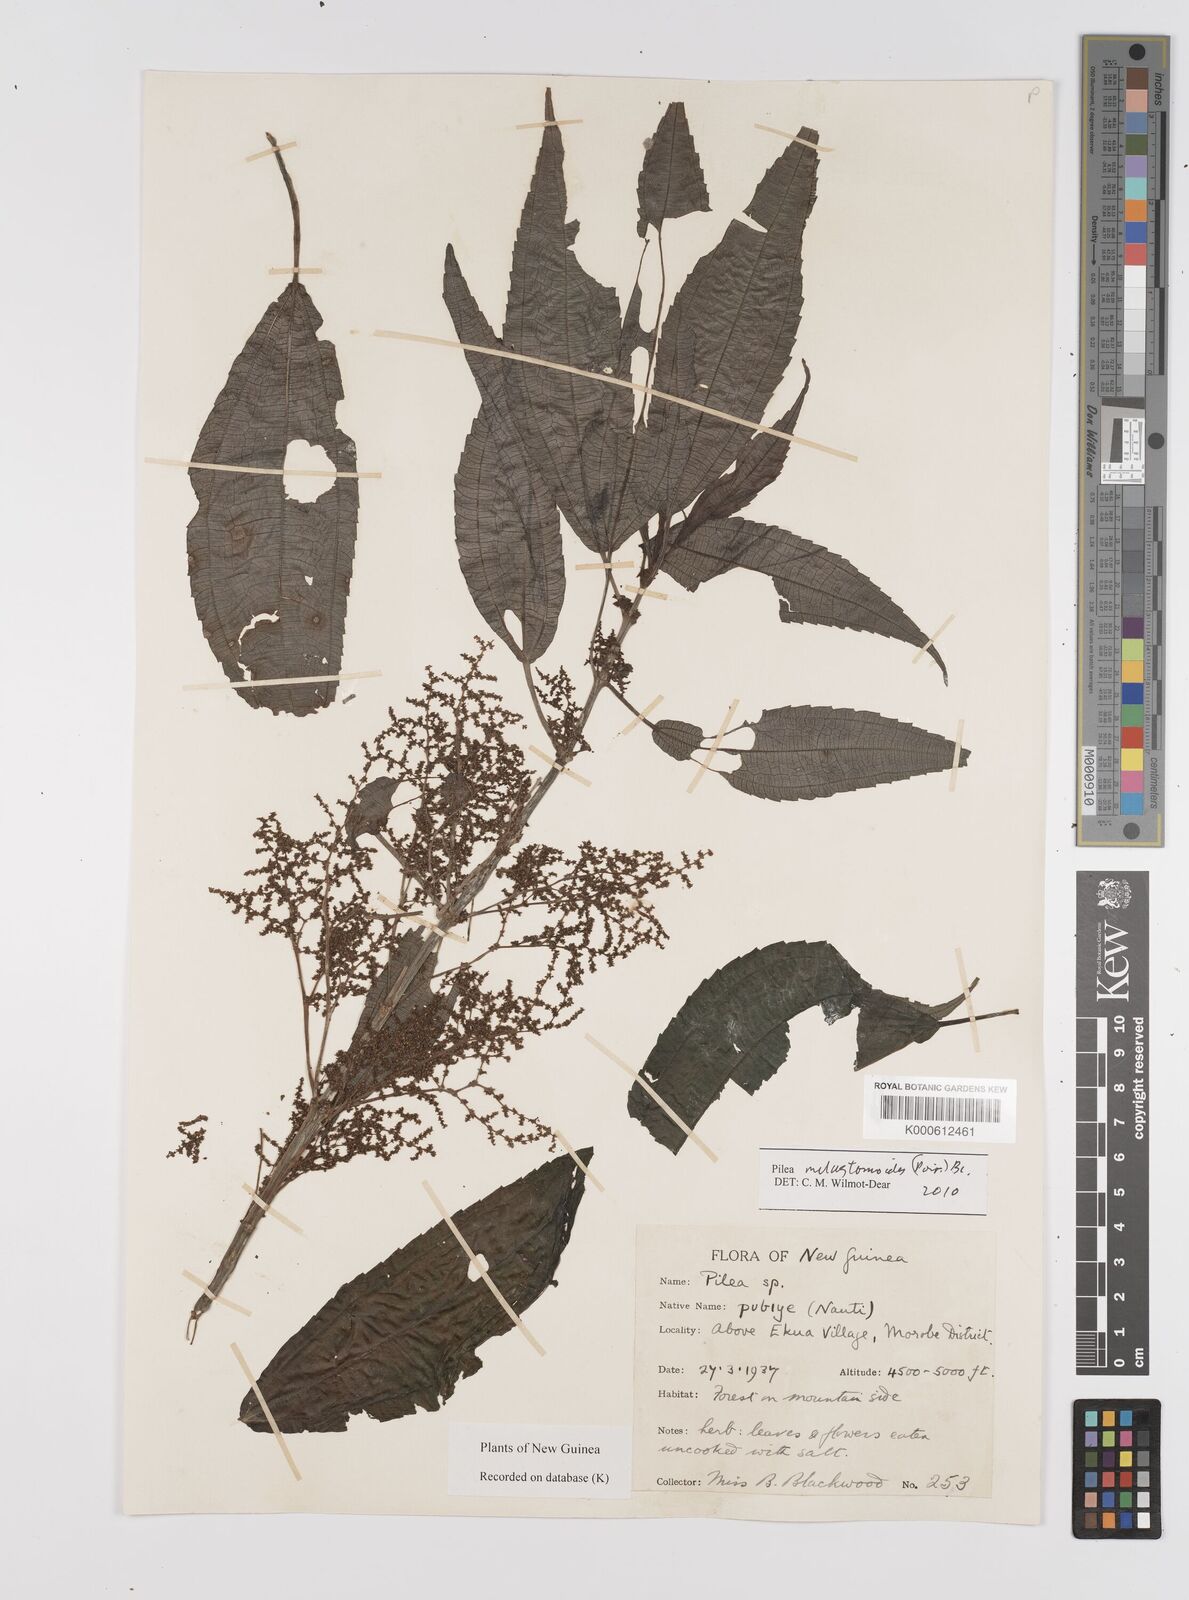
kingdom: Plantae
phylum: Tracheophyta
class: Magnoliopsida
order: Rosales
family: Urticaceae
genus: Pilea
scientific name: Pilea
